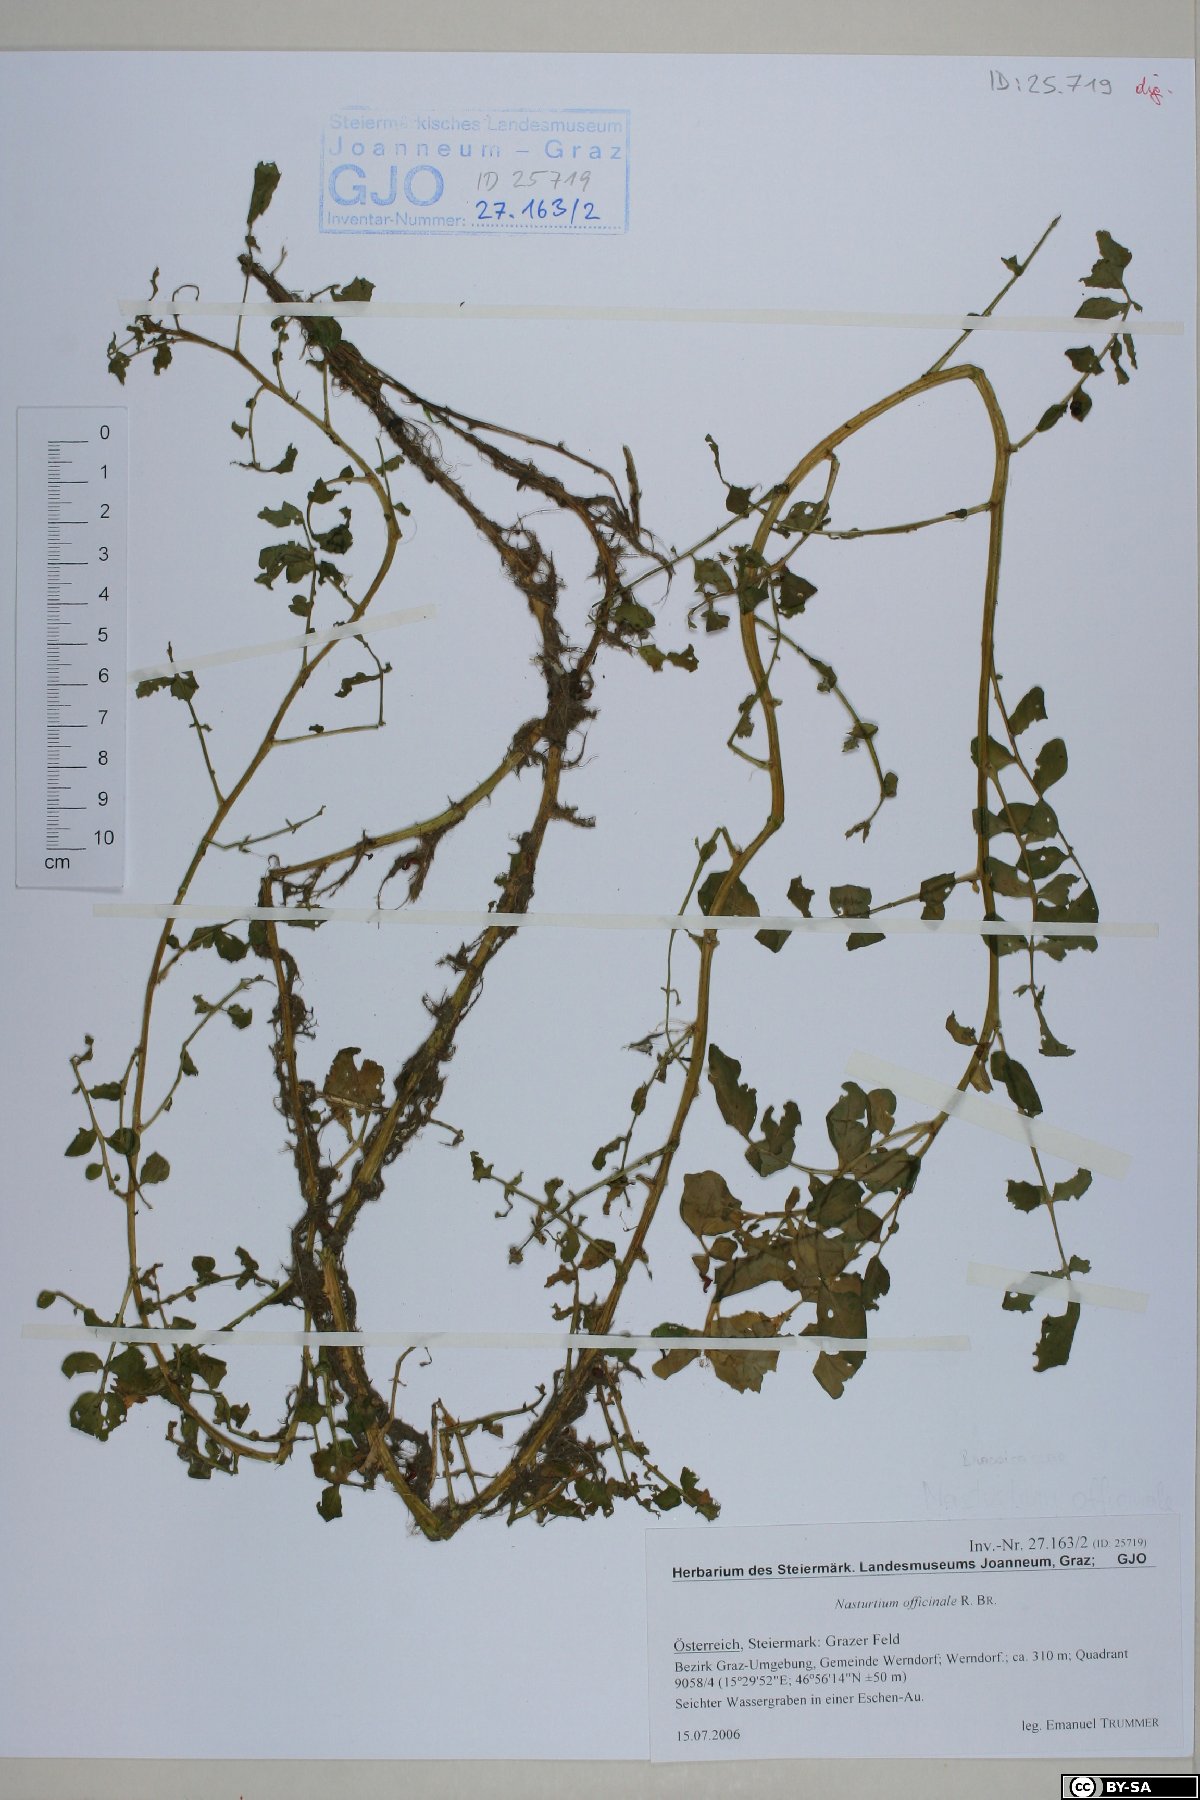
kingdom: Plantae
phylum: Tracheophyta
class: Magnoliopsida
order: Brassicales
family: Brassicaceae
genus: Nasturtium
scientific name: Nasturtium officinale
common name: Watercress
